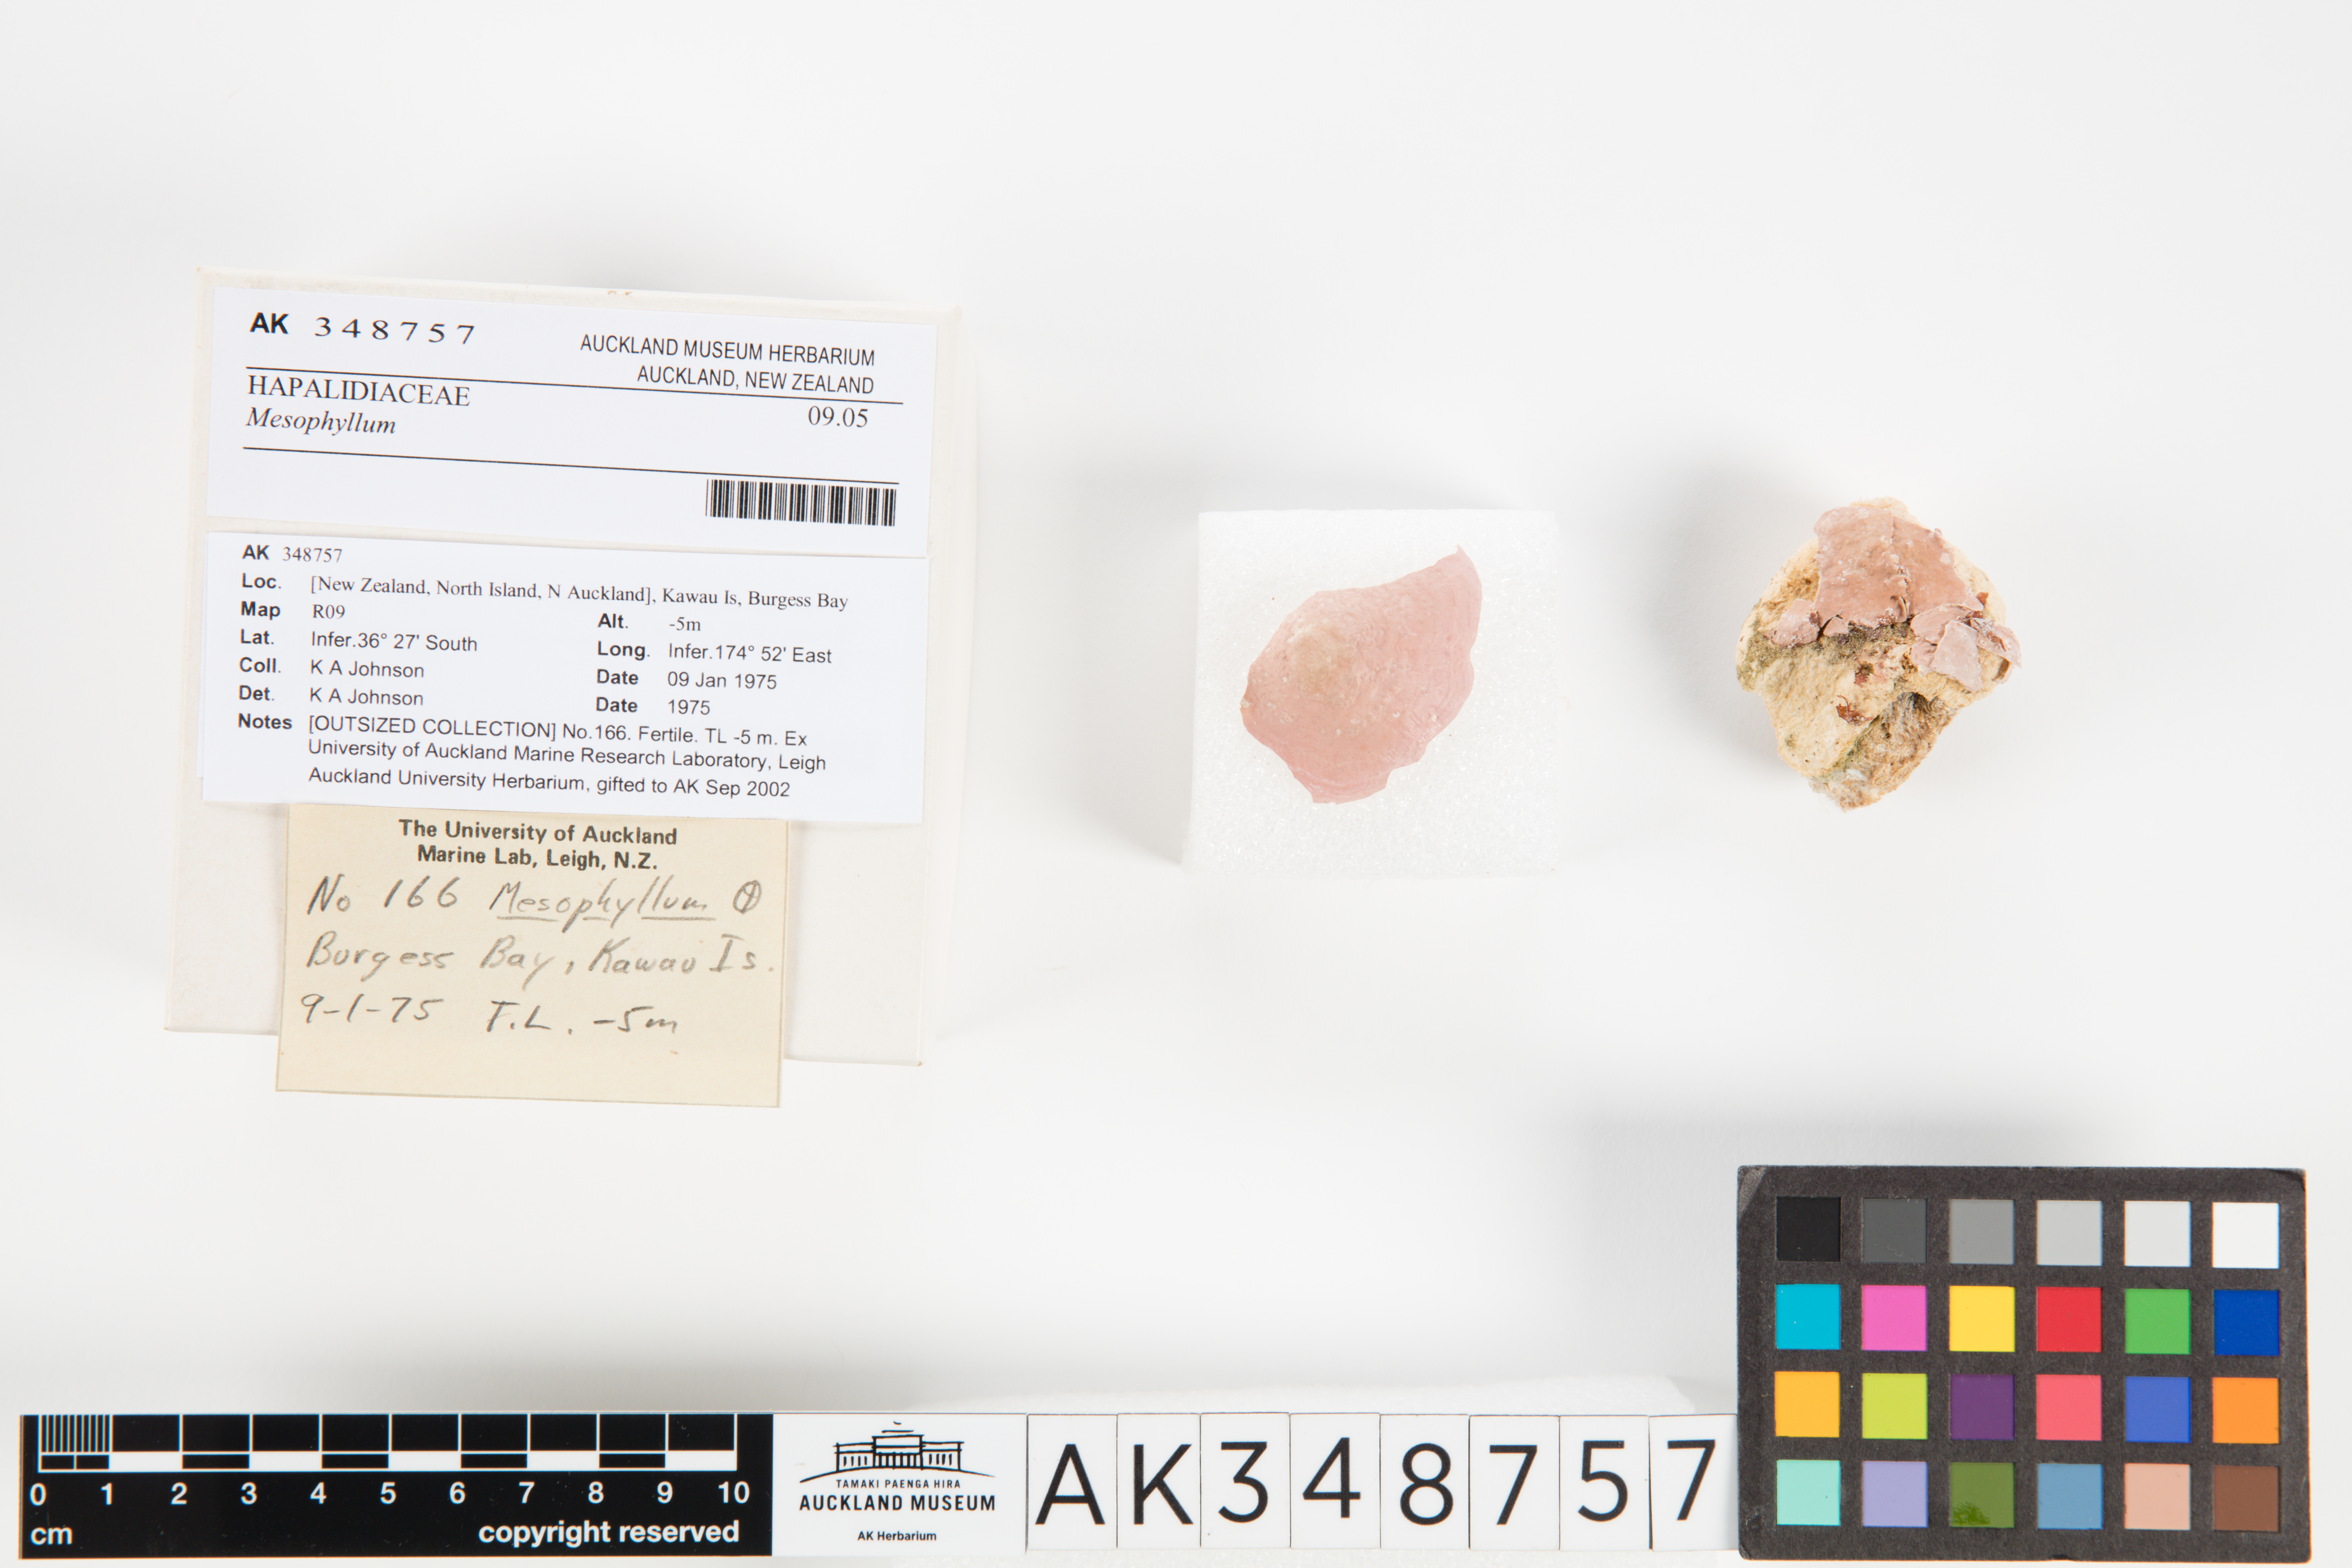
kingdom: Plantae
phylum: Rhodophyta
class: Florideophyceae
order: Corallinales
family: Mesophyllumaceae
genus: Mesophyllum
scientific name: Mesophyllum
